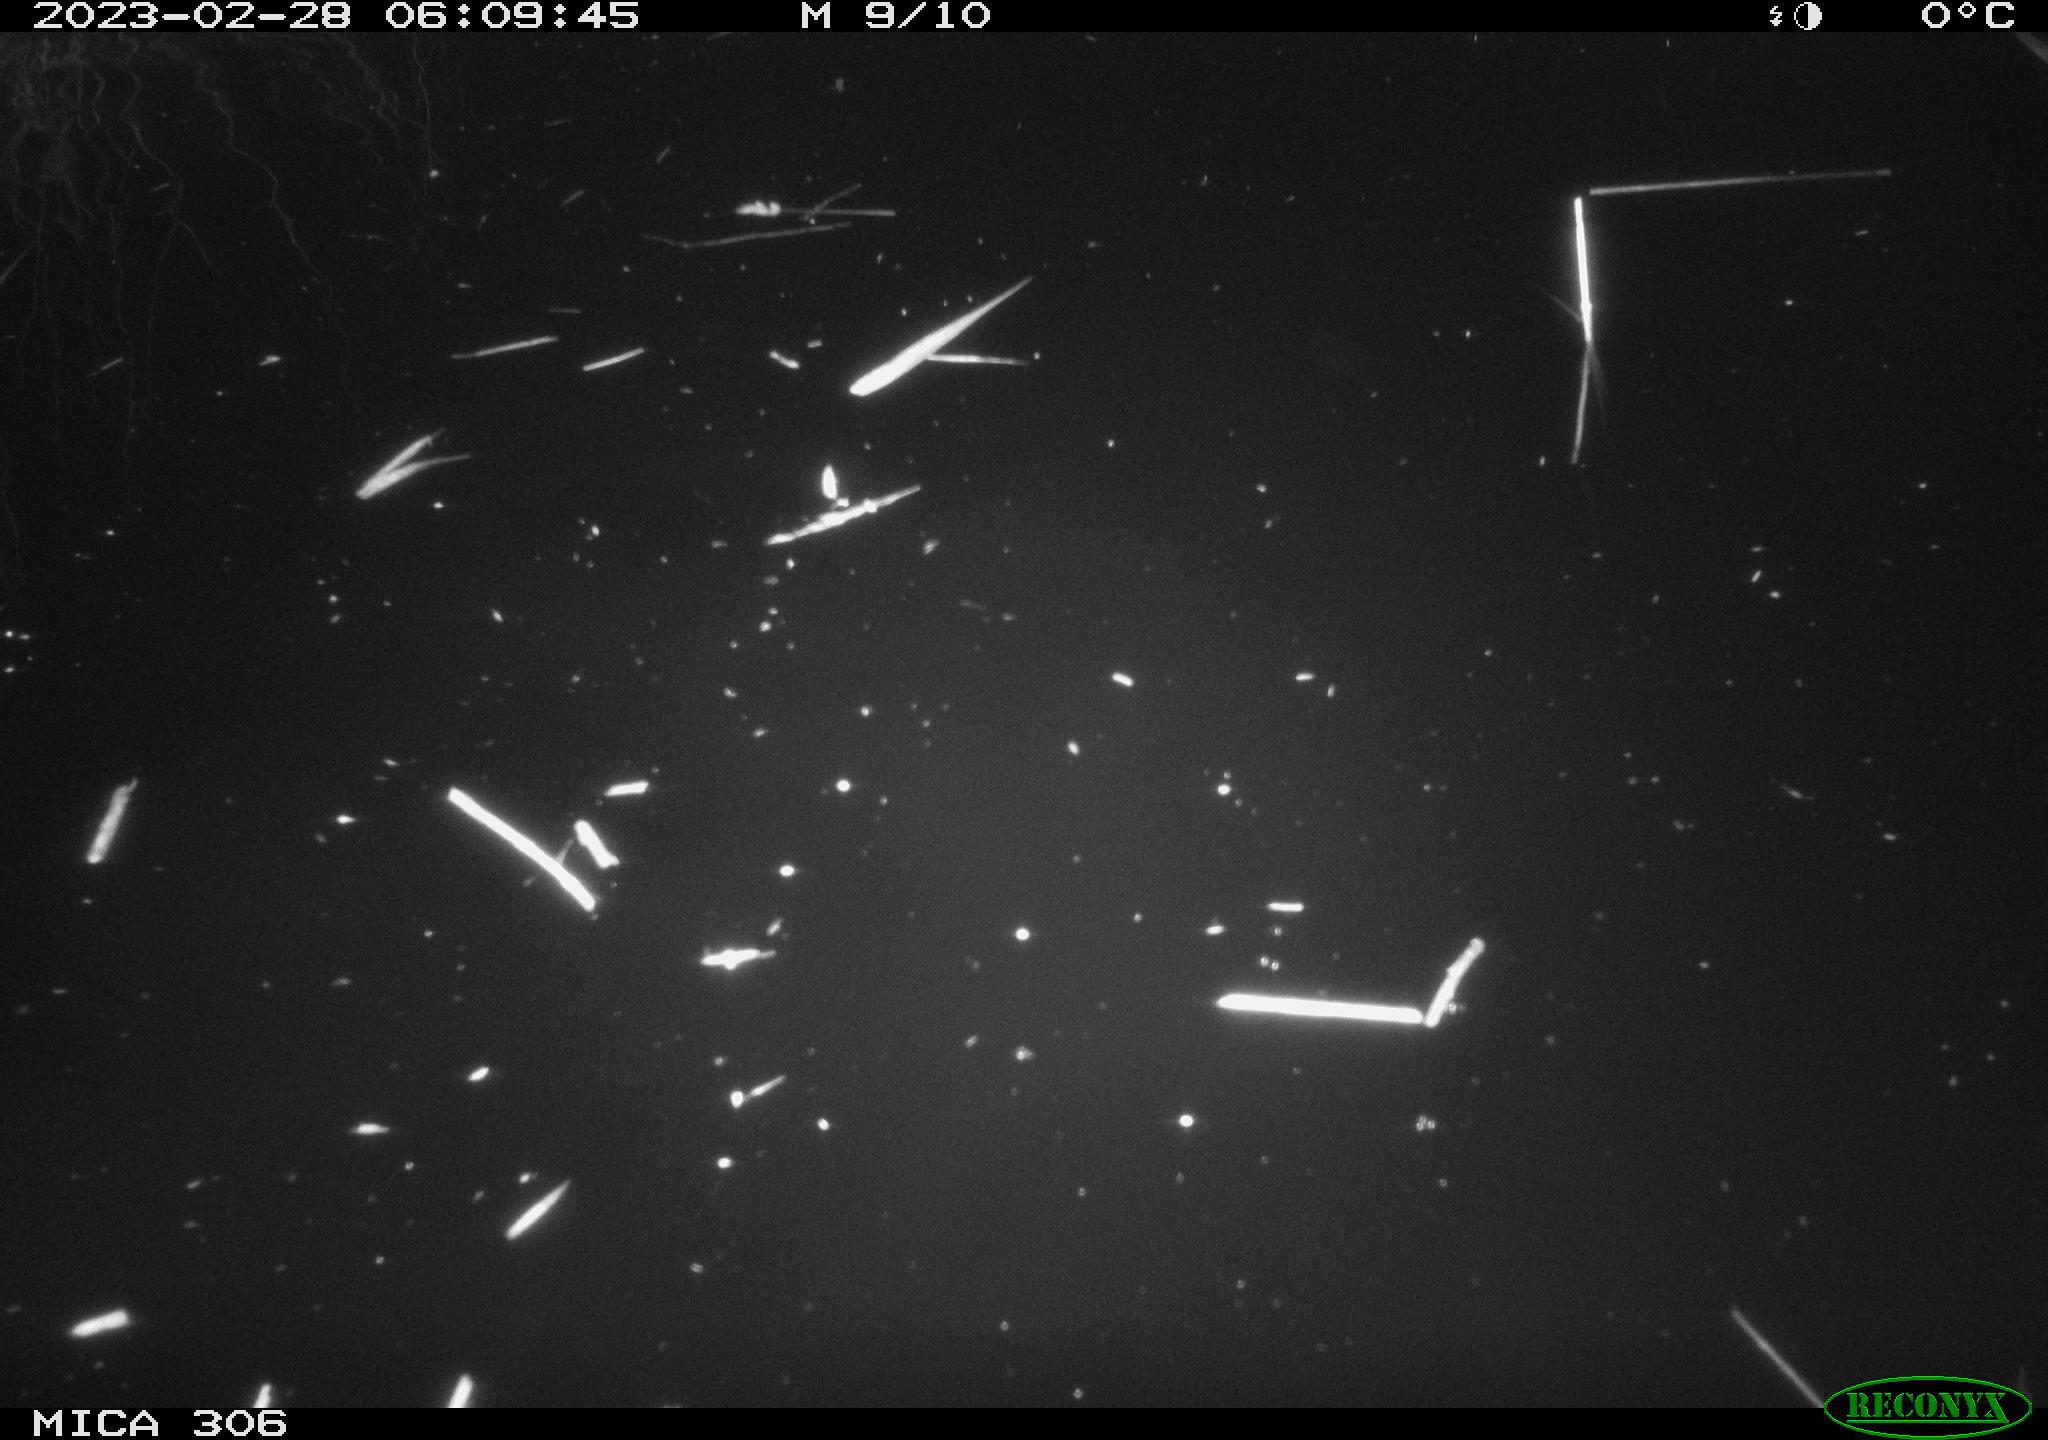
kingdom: Animalia
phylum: Chordata
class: Mammalia
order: Rodentia
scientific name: Rodentia
